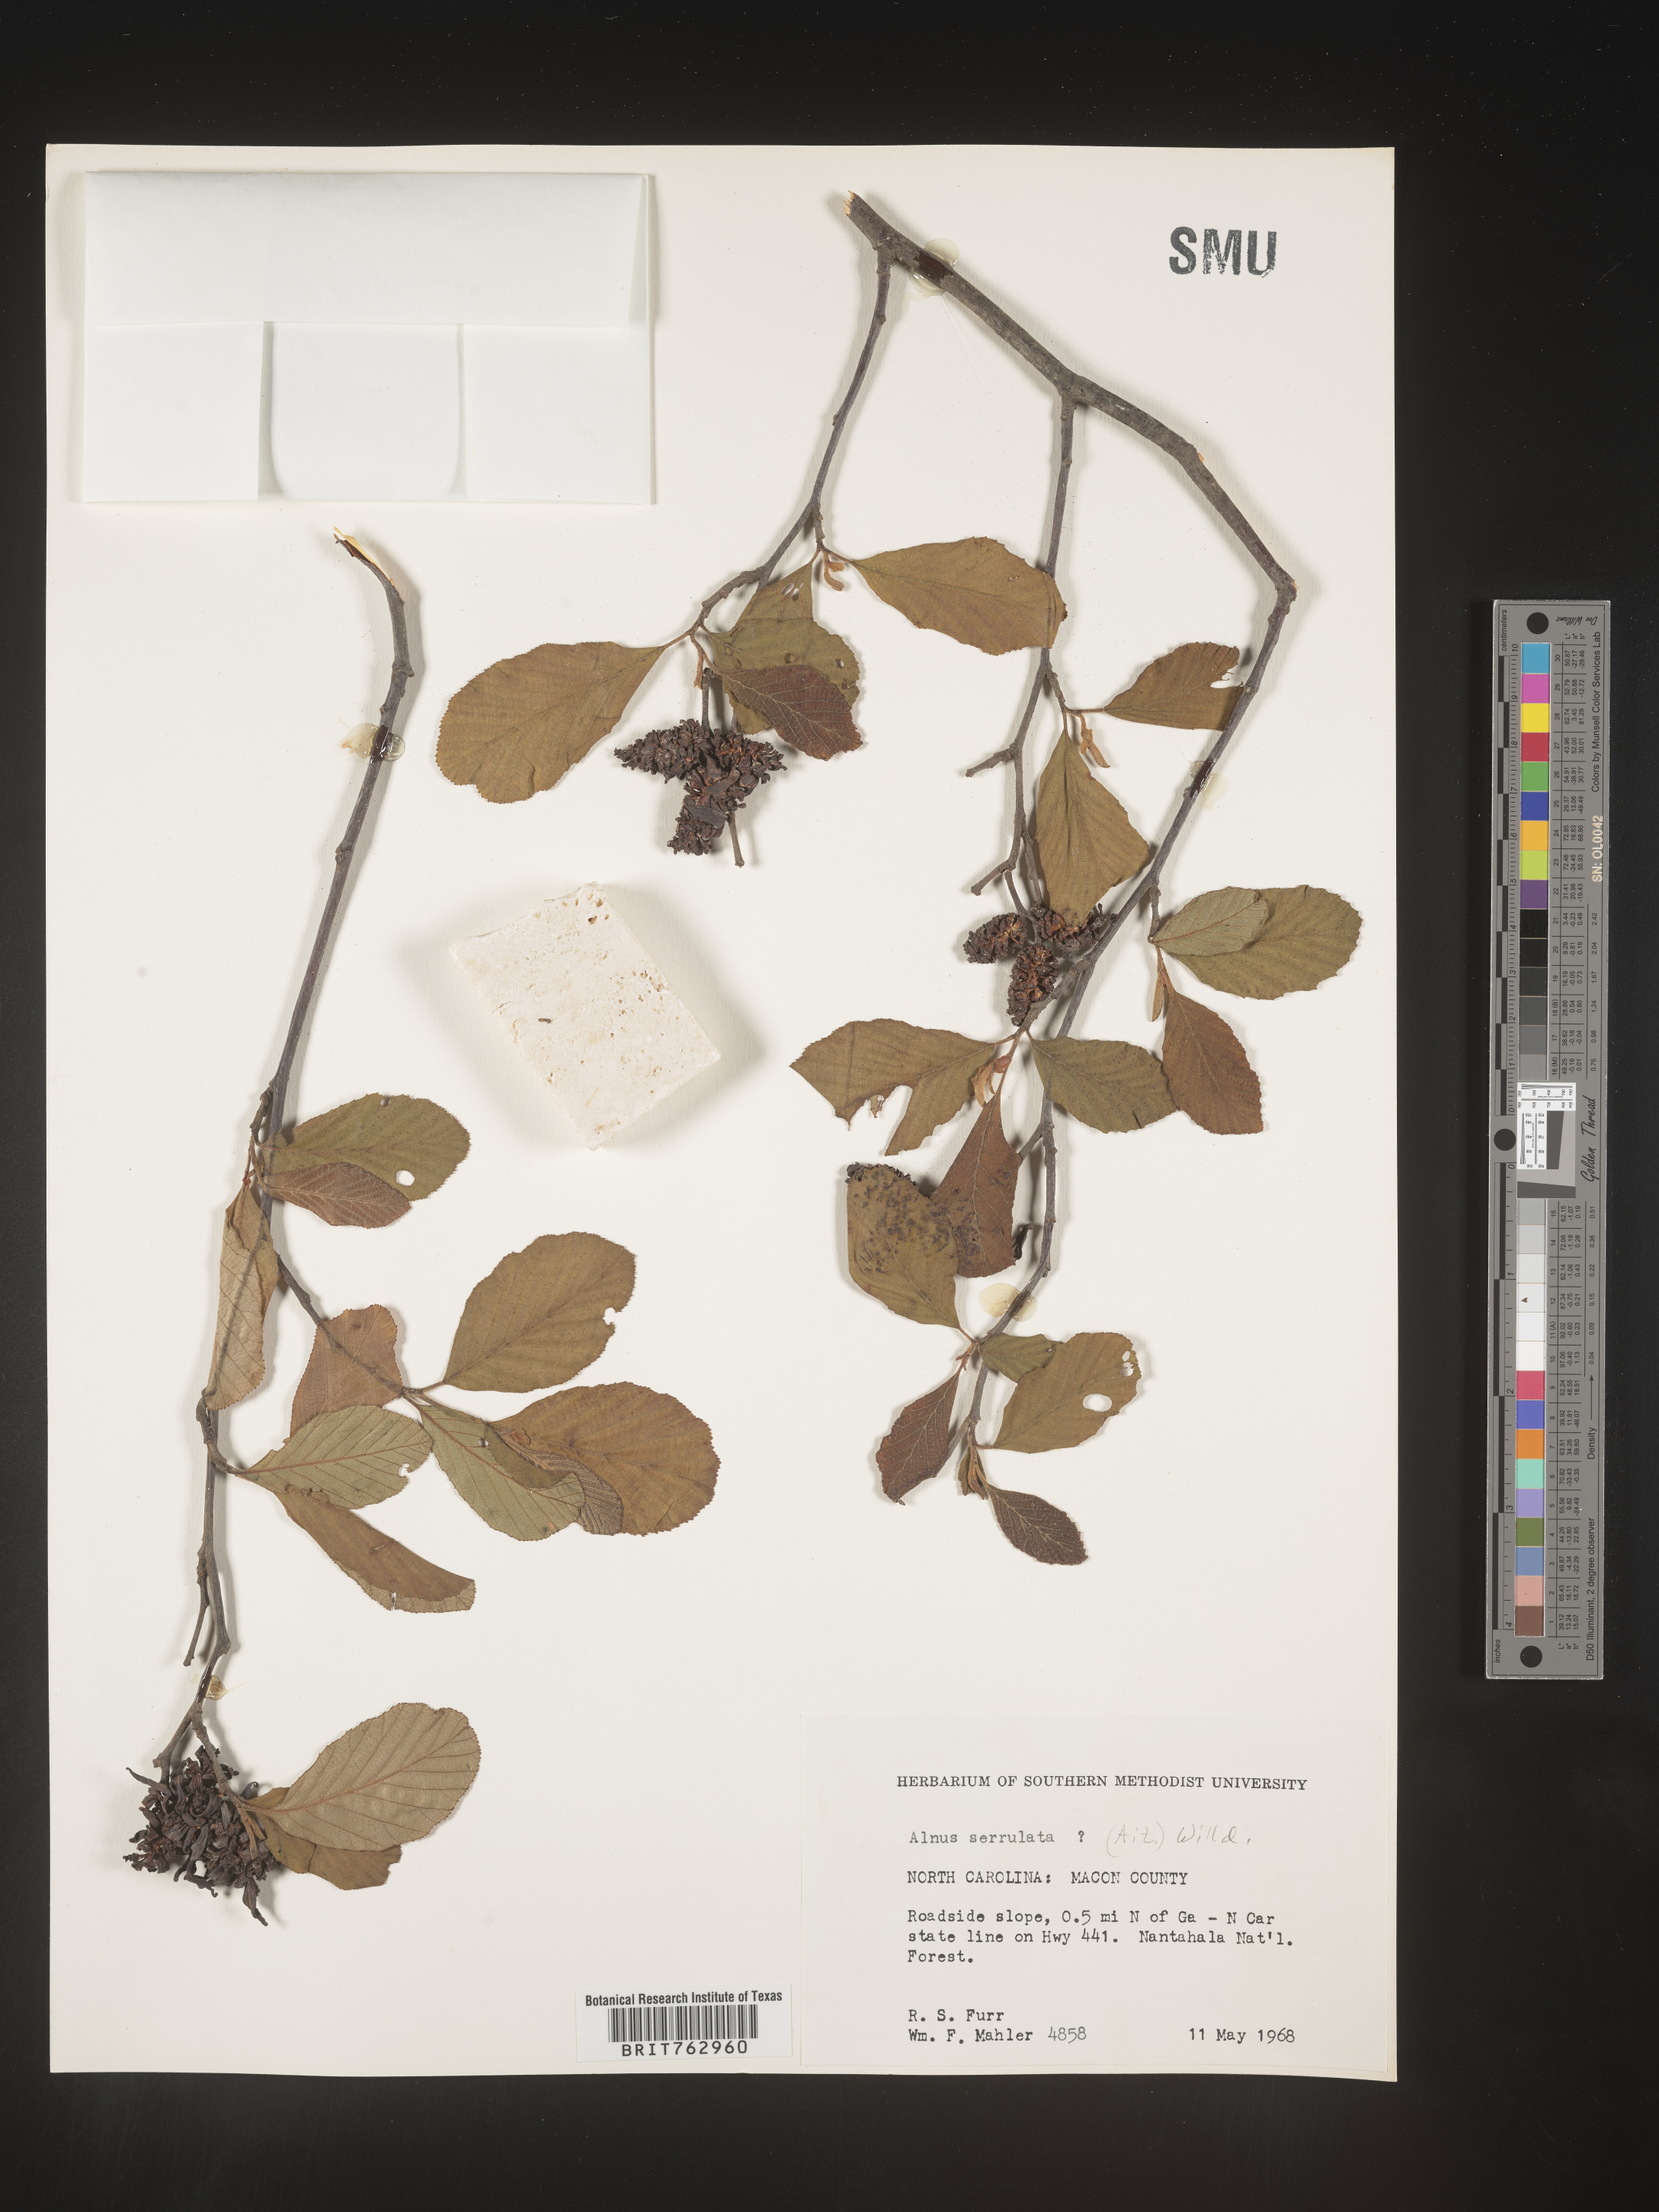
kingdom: Plantae
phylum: Tracheophyta
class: Magnoliopsida
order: Fagales
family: Betulaceae
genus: Alnus
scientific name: Alnus serrulata
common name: Hazel alder
